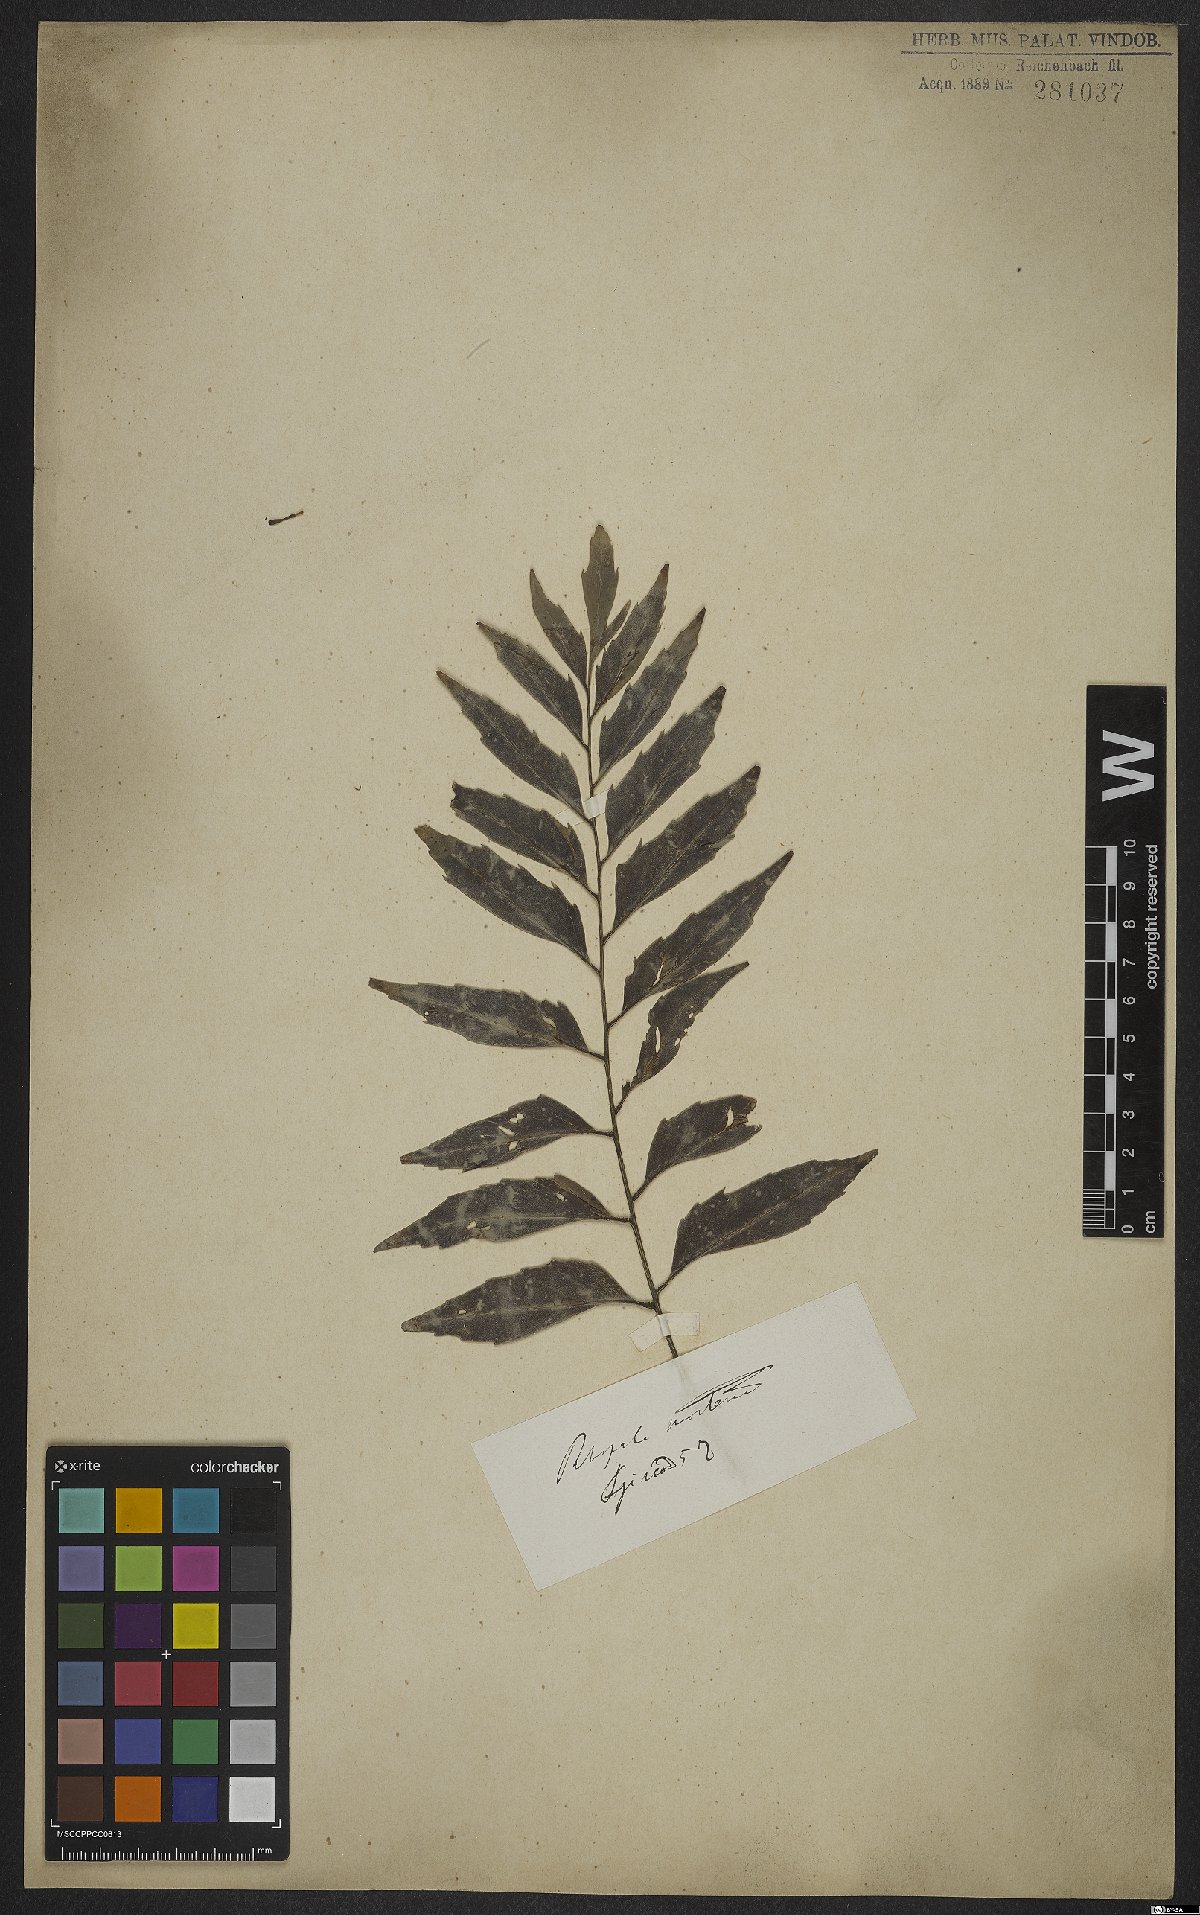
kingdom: Plantae
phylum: Tracheophyta
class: Magnoliopsida
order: Proteales
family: Proteaceae
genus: Roupala
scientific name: Roupala montana
